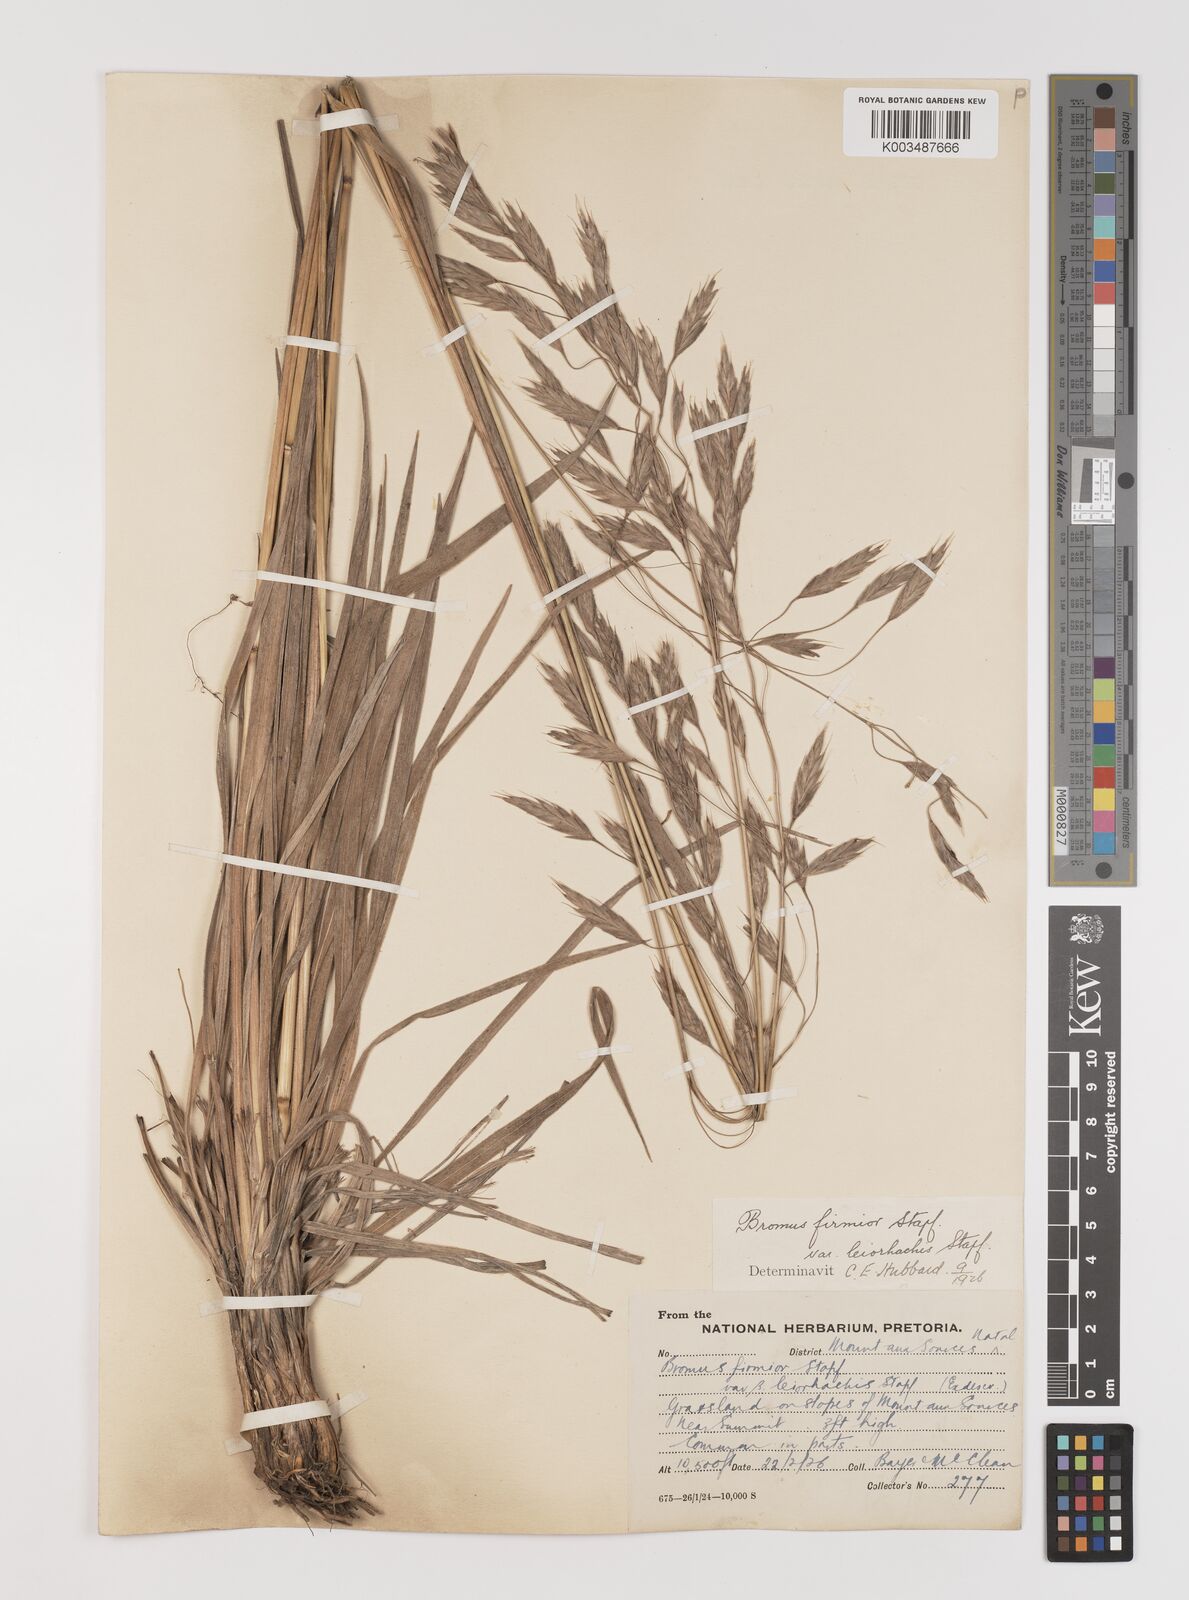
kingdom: Plantae
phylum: Tracheophyta
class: Liliopsida
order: Poales
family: Poaceae
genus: Bromus
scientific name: Bromus firmior
